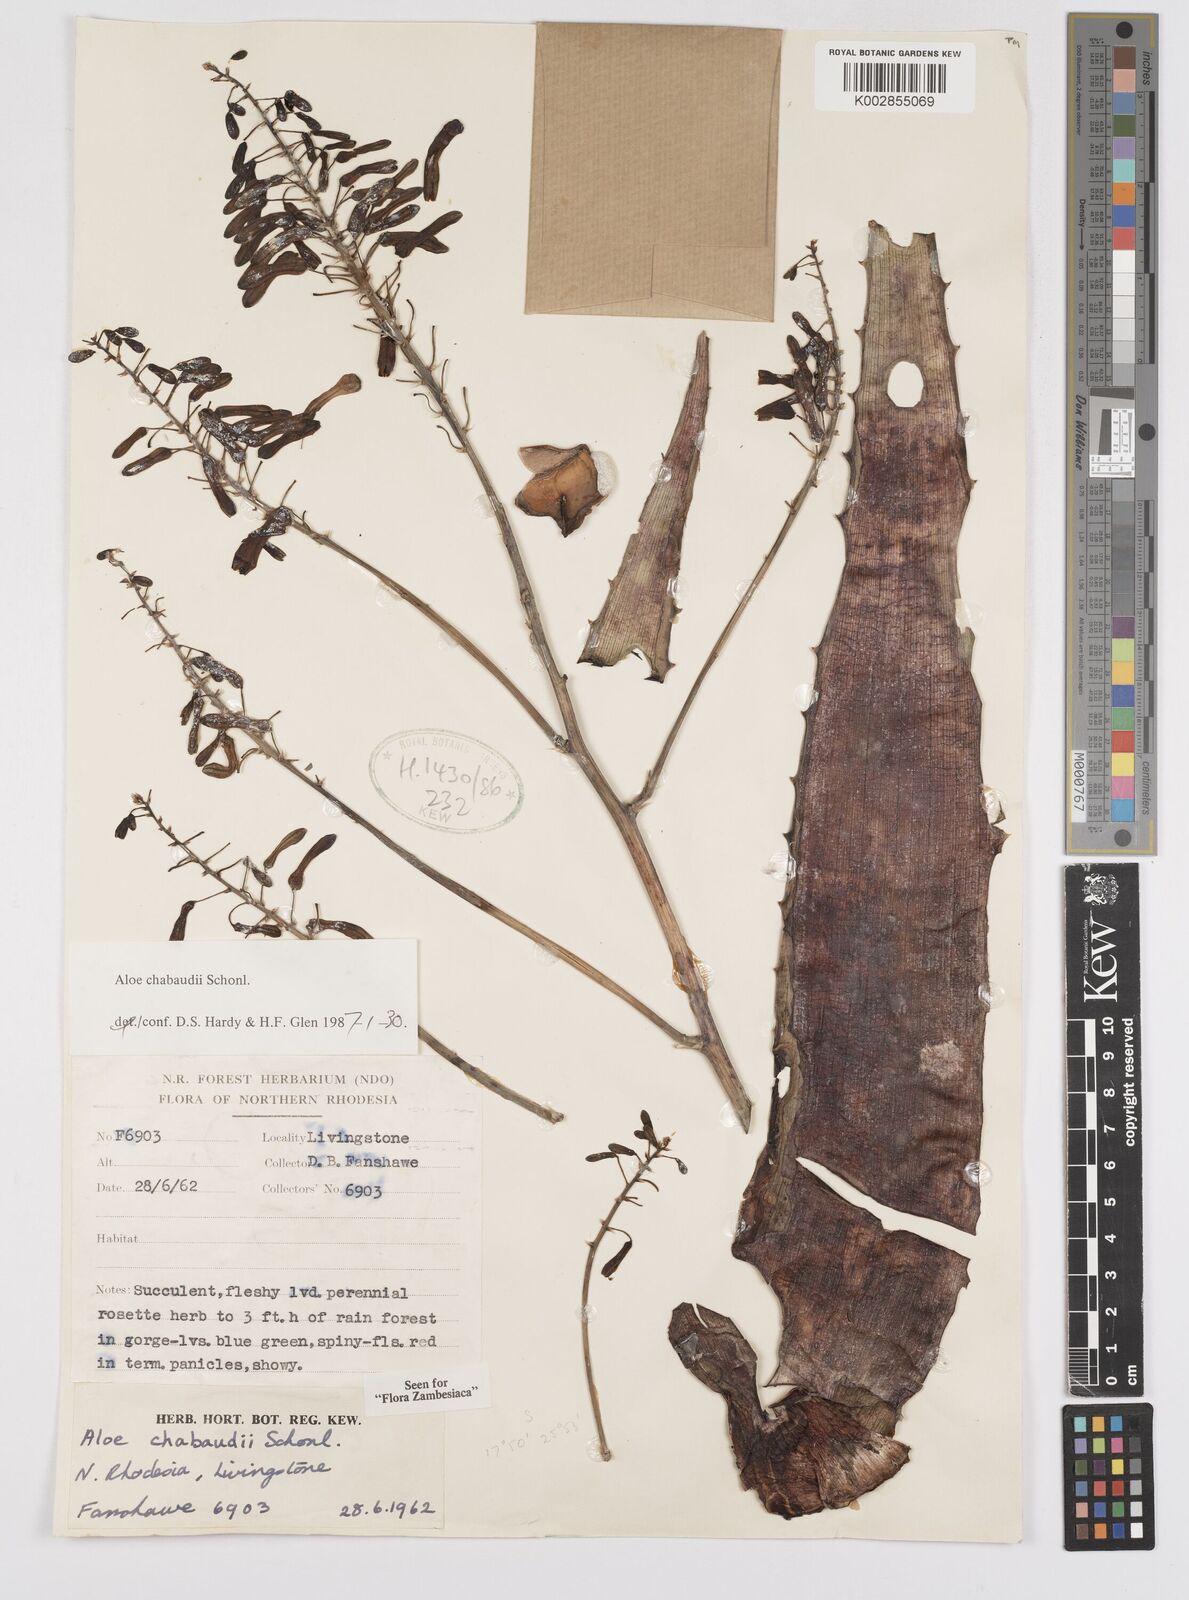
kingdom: Plantae
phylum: Tracheophyta
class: Liliopsida
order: Asparagales
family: Asphodelaceae
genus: Aloe
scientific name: Aloe chabaudii
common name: Chabaud's aloe
